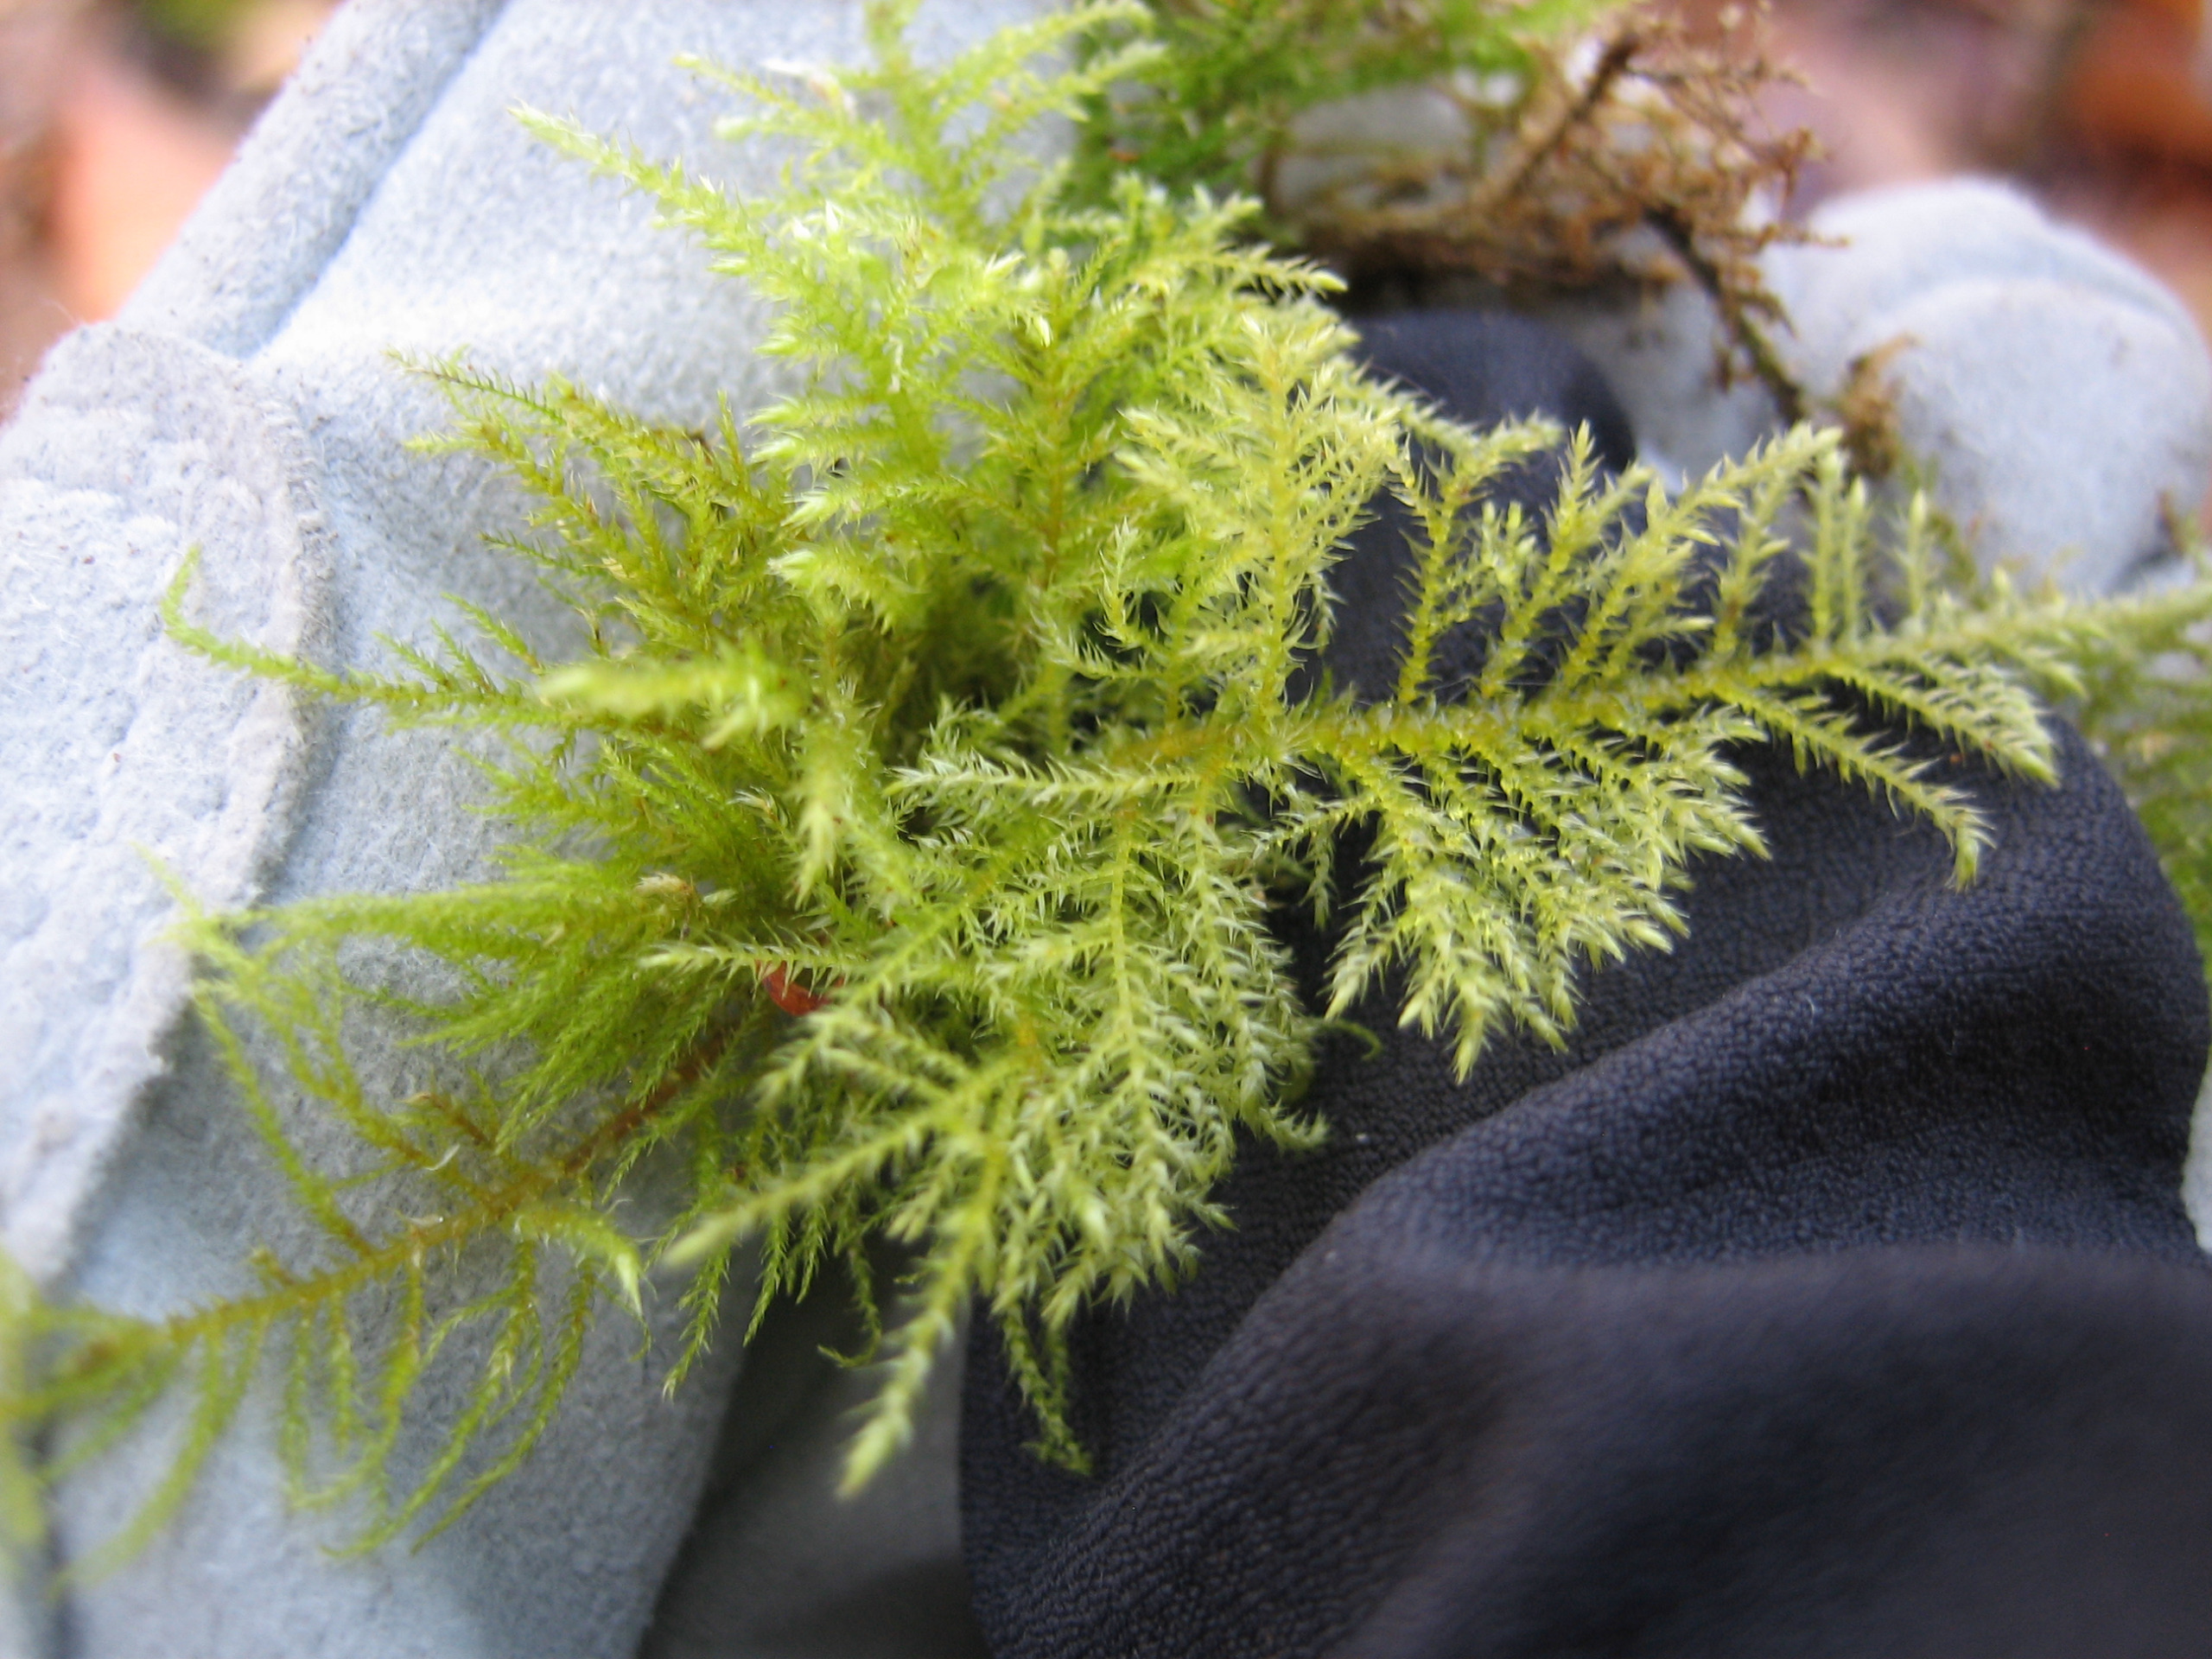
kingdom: Plantae
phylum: Bryophyta
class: Bryopsida
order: Hypnales
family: Brachytheciaceae
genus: Kindbergia
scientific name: Kindbergia praelonga
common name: Forskelligbladet vortetand
